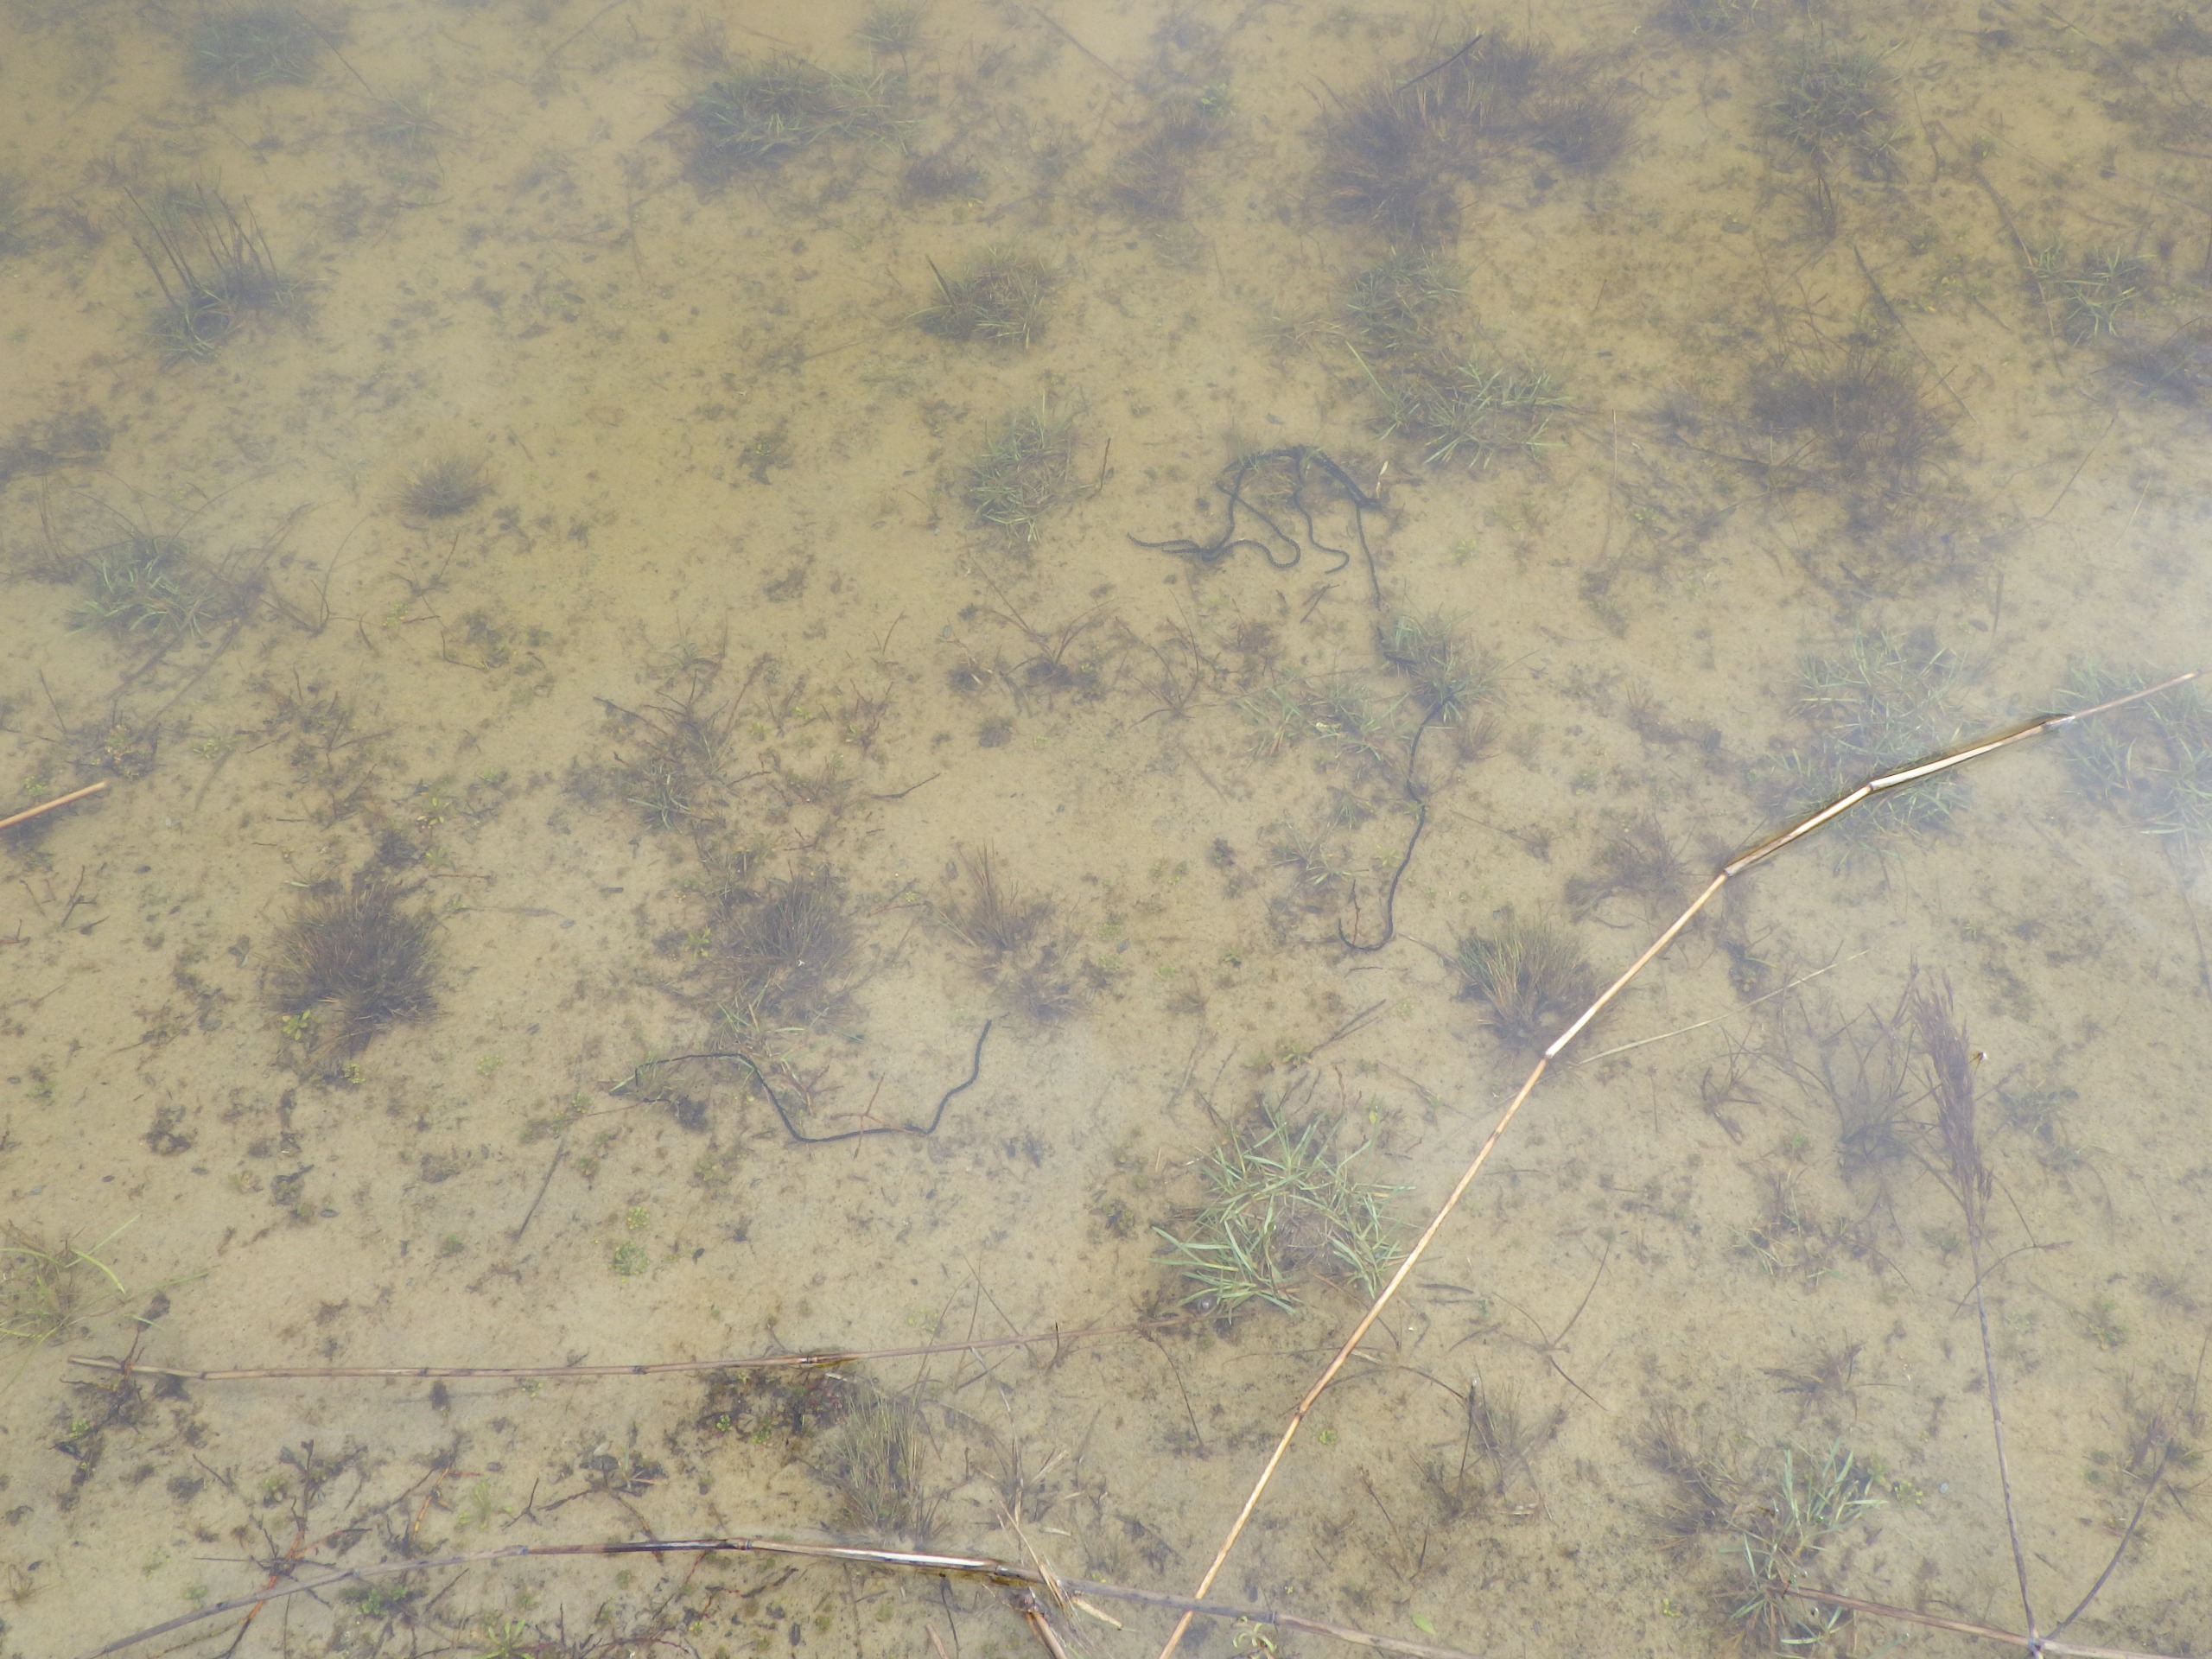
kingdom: Animalia
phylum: Chordata
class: Amphibia
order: Anura
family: Bufonidae
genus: Epidalea
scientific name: Epidalea calamita
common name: Strandtudse
